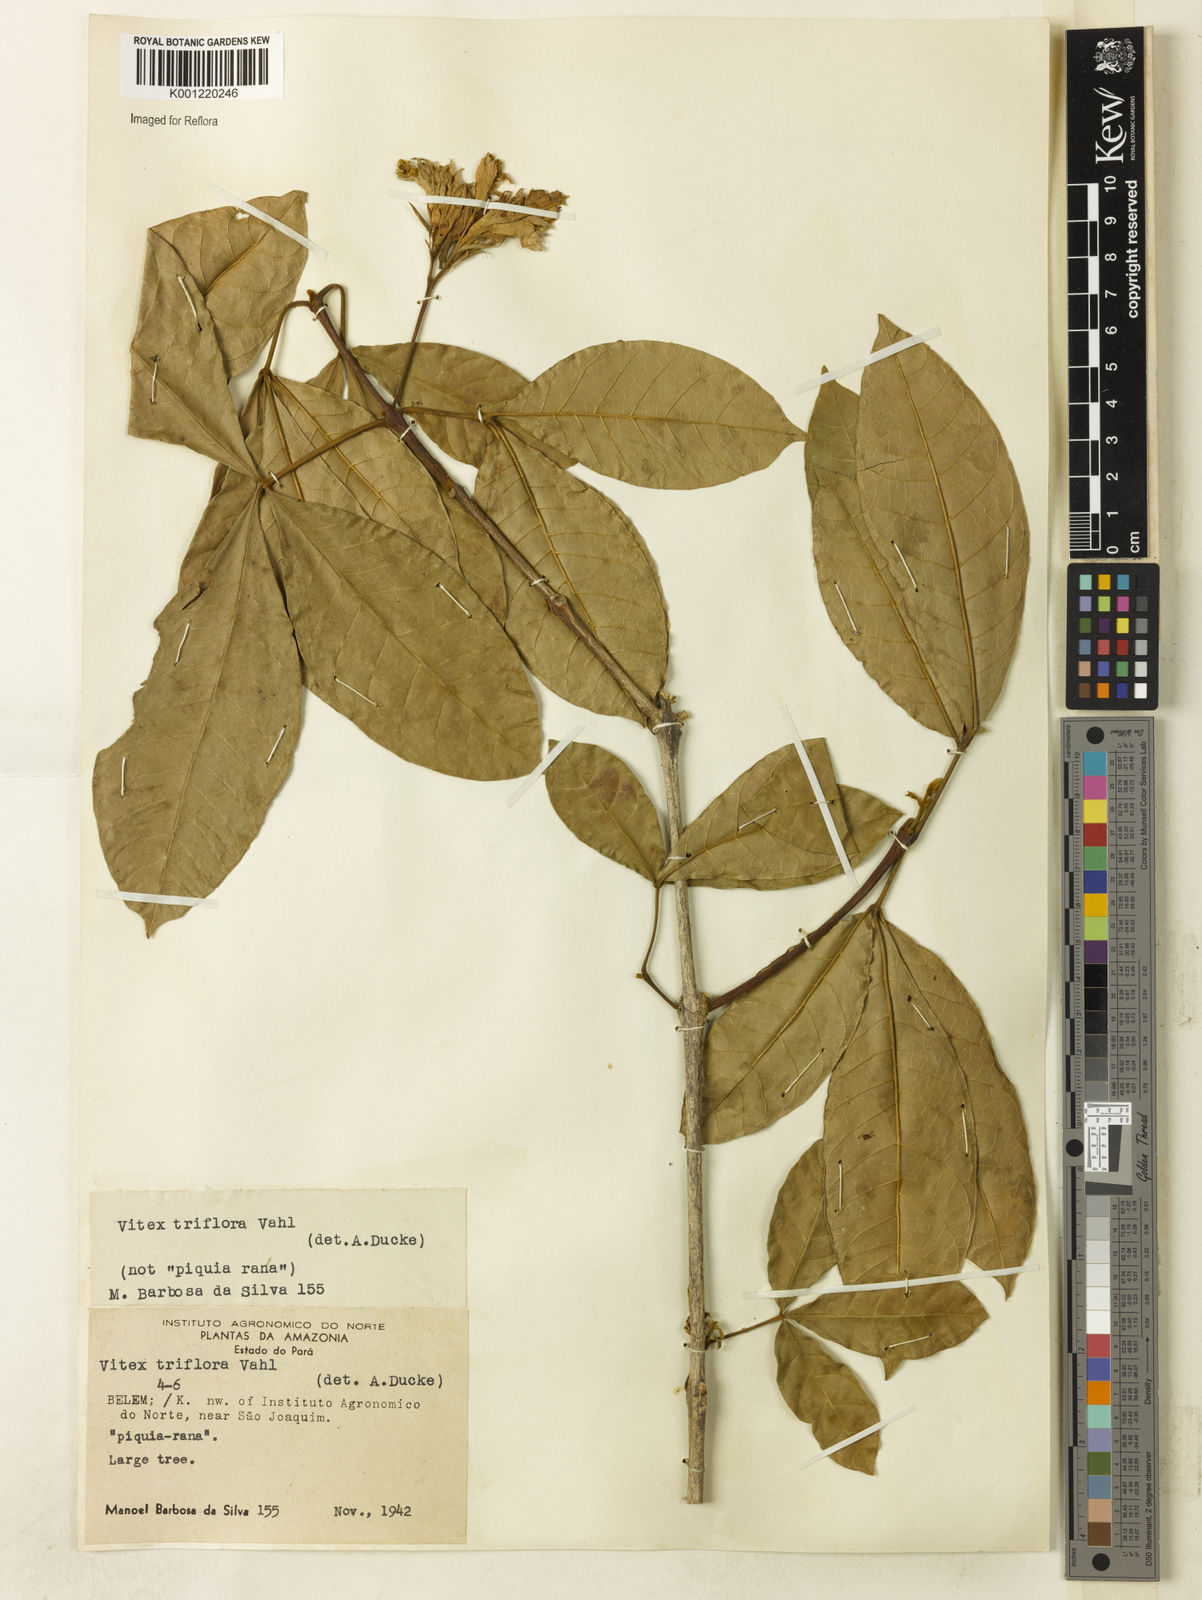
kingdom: Plantae
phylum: Tracheophyta
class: Magnoliopsida
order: Lamiales
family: Lamiaceae
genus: Vitex
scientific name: Vitex triflora
